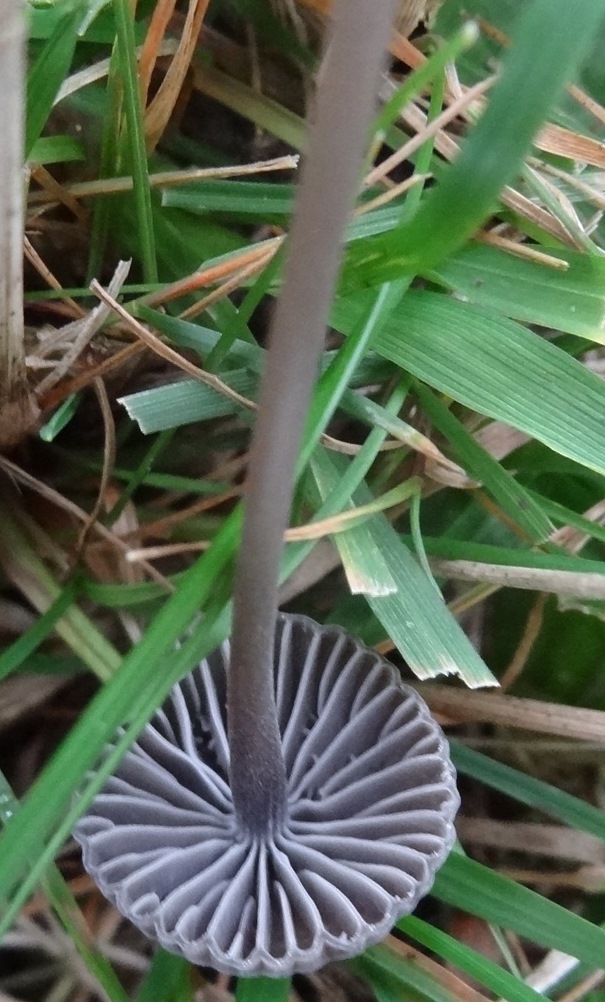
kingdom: Fungi
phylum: Basidiomycota
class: Agaricomycetes
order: Agaricales
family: Mycenaceae
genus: Mycena
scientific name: Mycena aetites
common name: plæne-huesvamp
